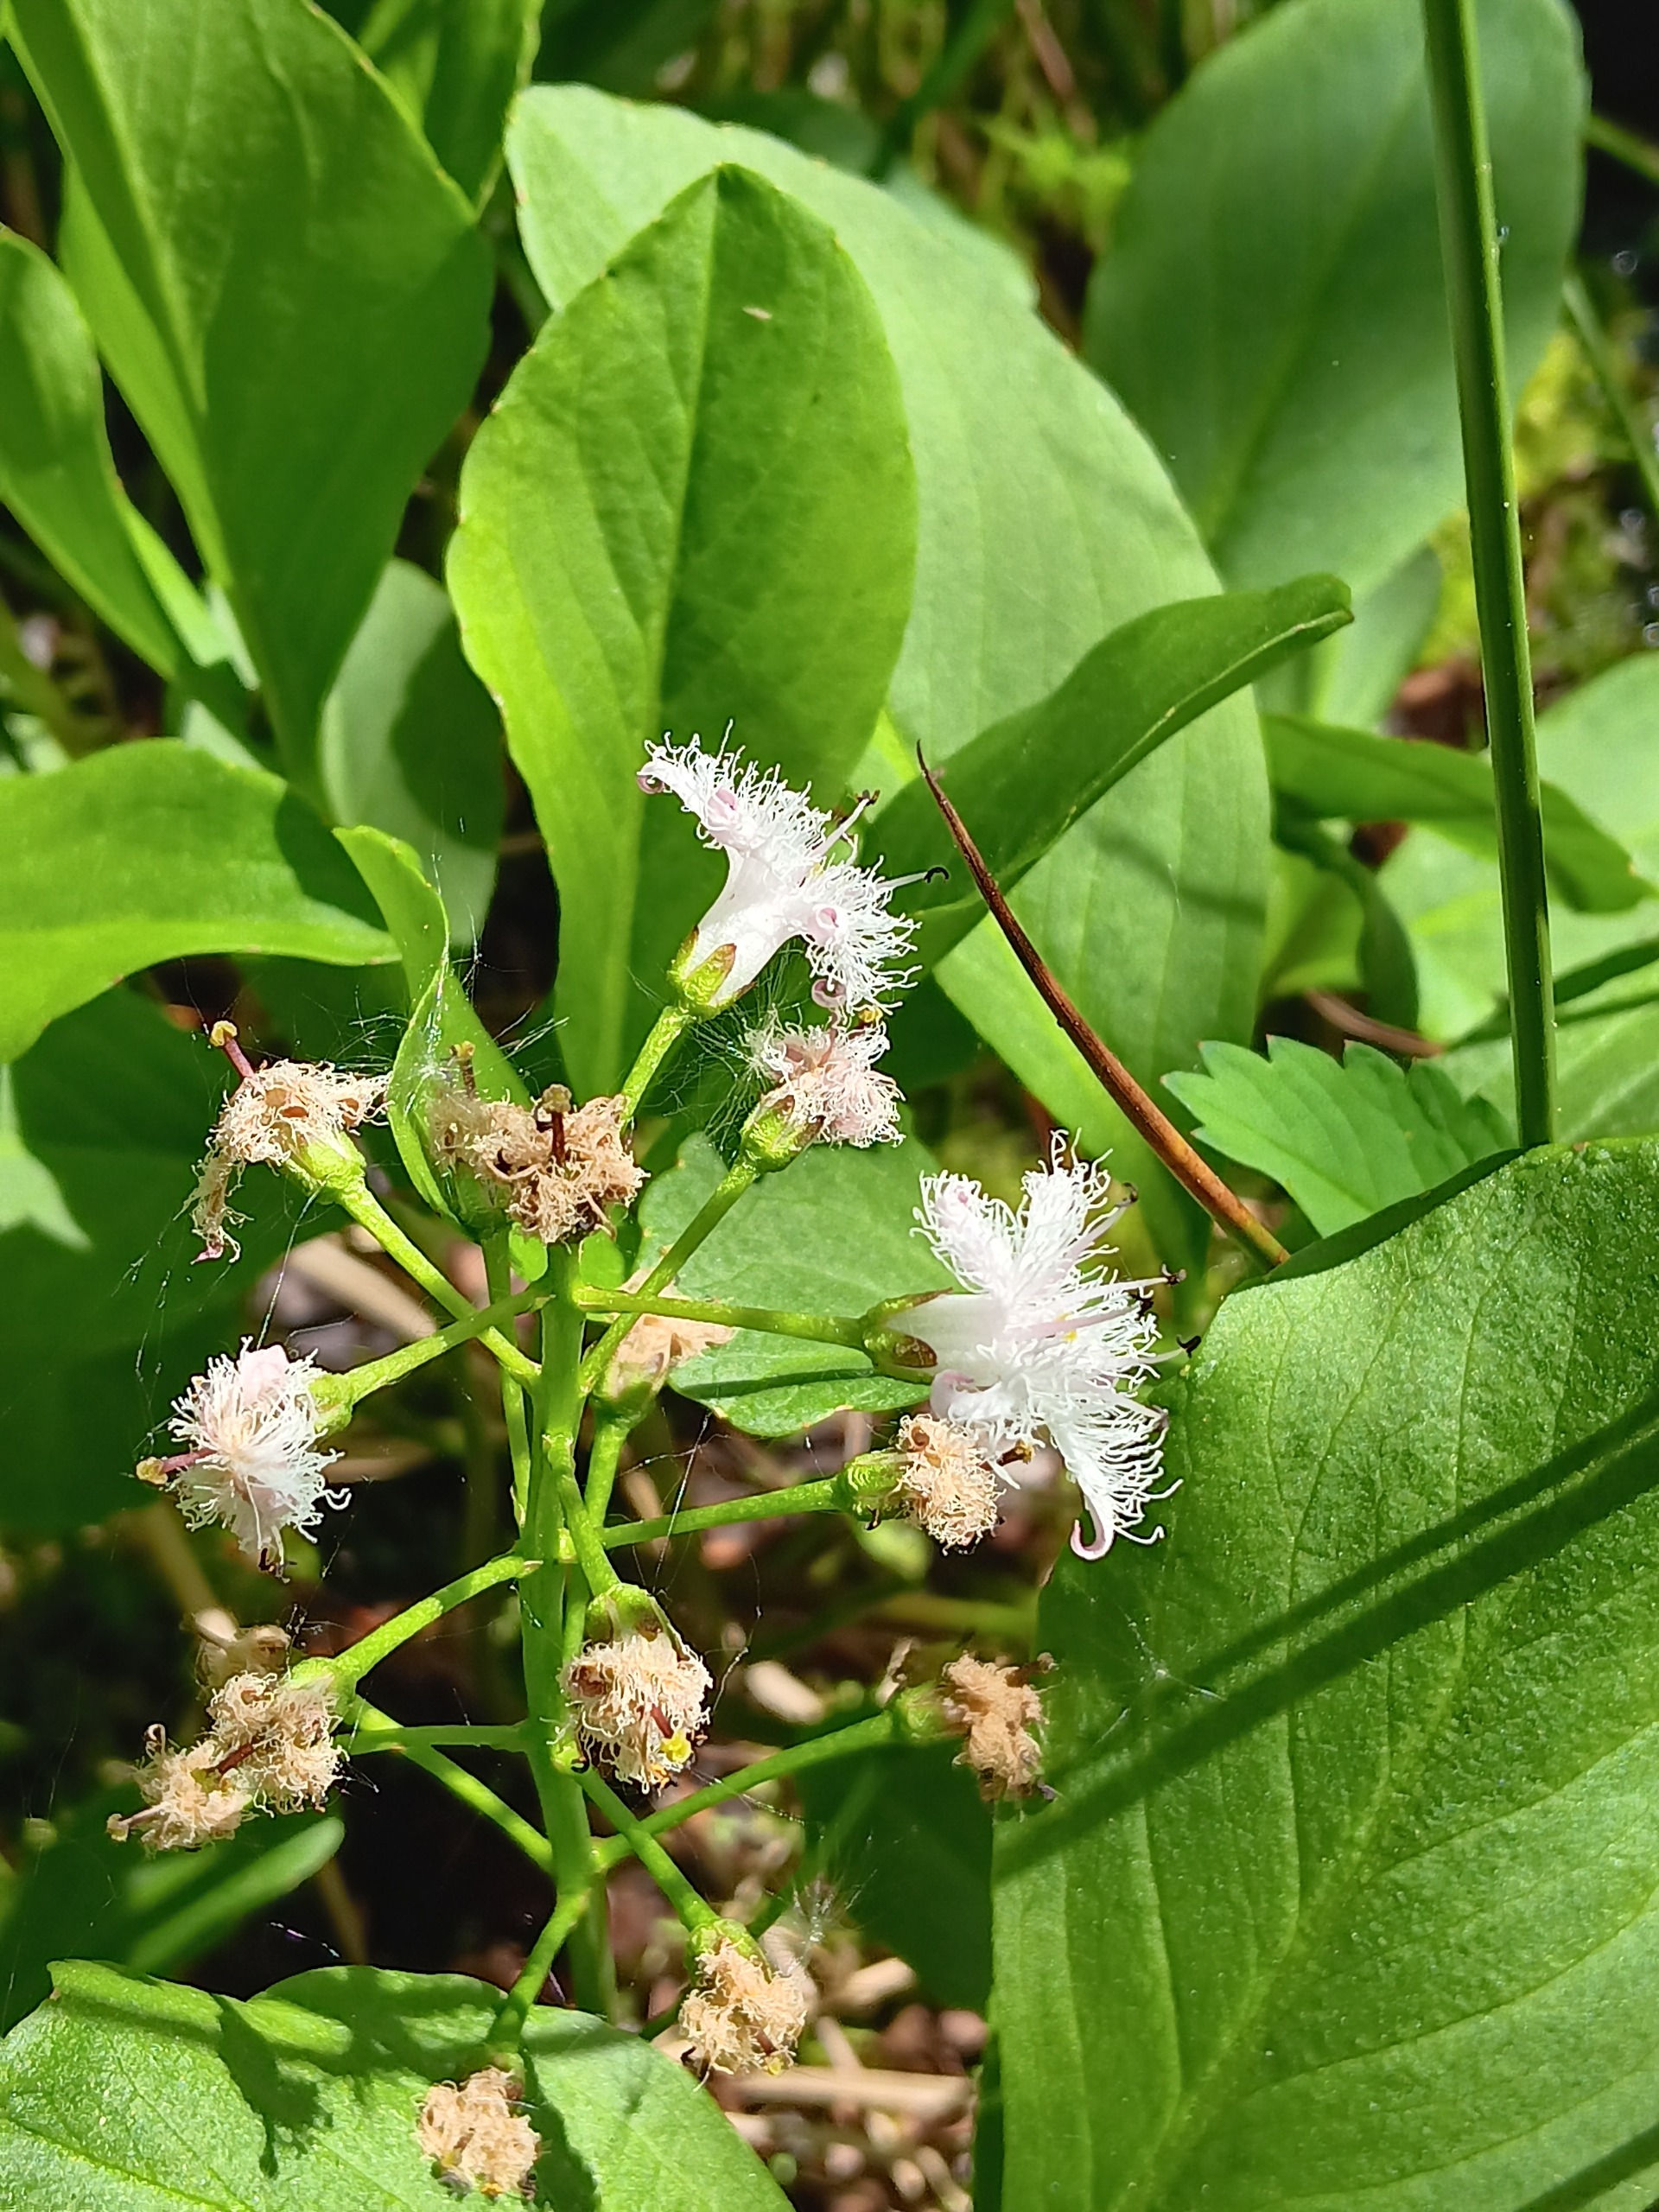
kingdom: Plantae
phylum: Tracheophyta
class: Magnoliopsida
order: Asterales
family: Menyanthaceae
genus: Menyanthes
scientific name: Menyanthes trifoliata
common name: Bukkeblad
